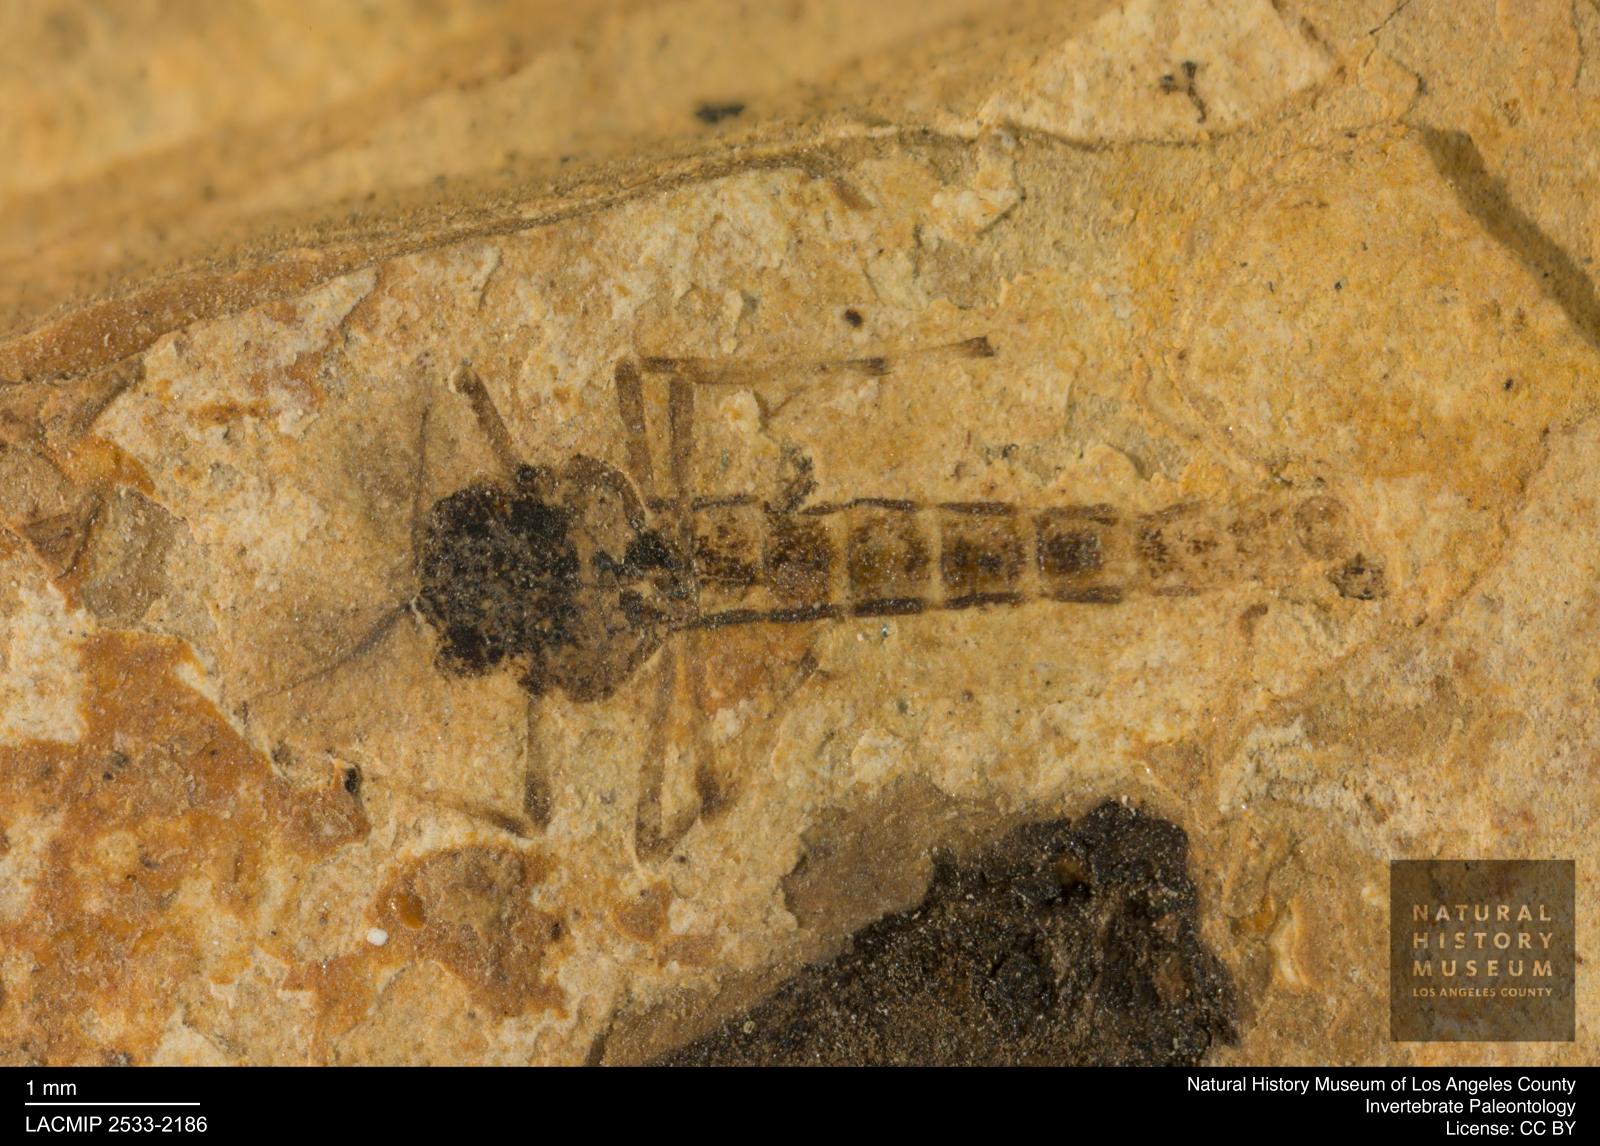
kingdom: Animalia
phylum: Arthropoda
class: Insecta
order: Diptera
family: Chironomidae
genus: Procladius
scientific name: Procladius
